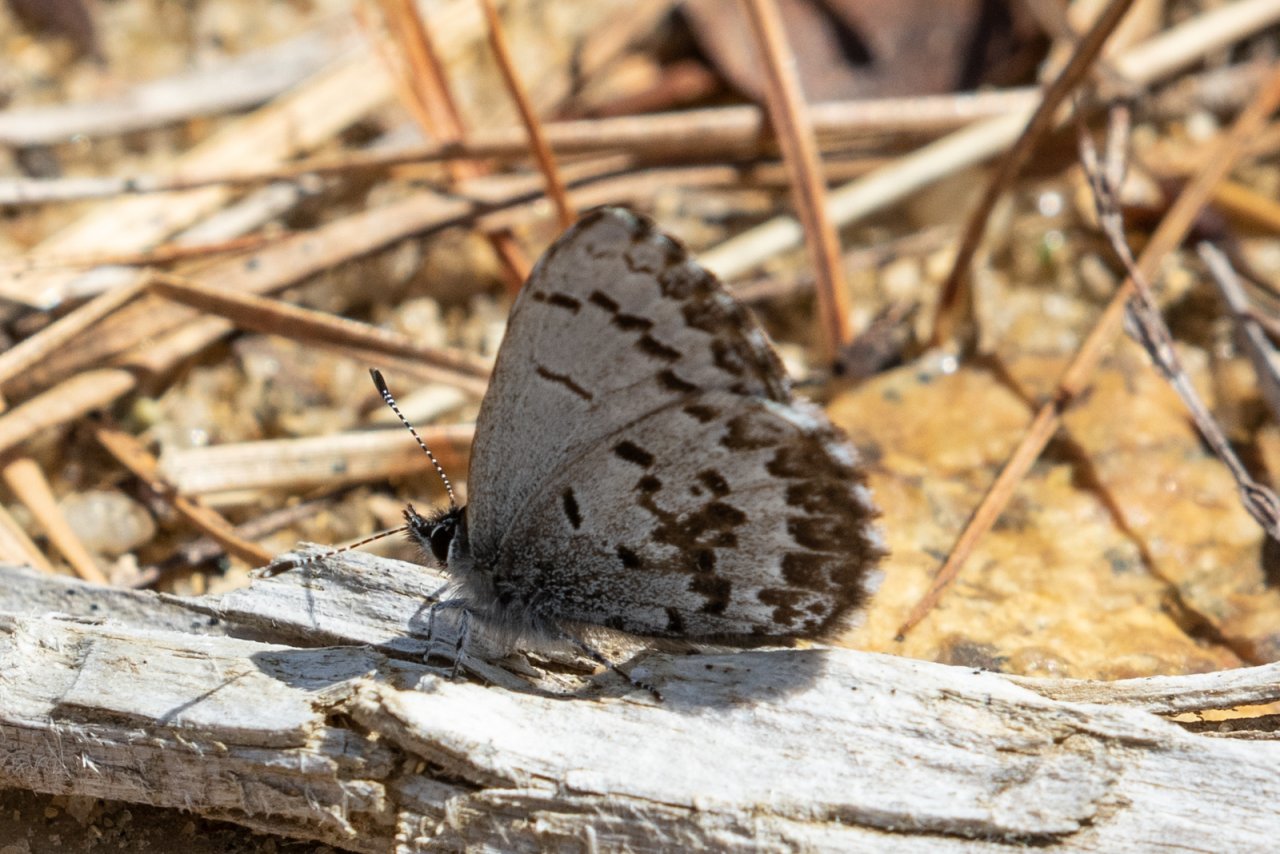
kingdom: Animalia
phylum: Arthropoda
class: Insecta
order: Lepidoptera
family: Lycaenidae
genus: Celastrina
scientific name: Celastrina ladon
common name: Spring Azure
